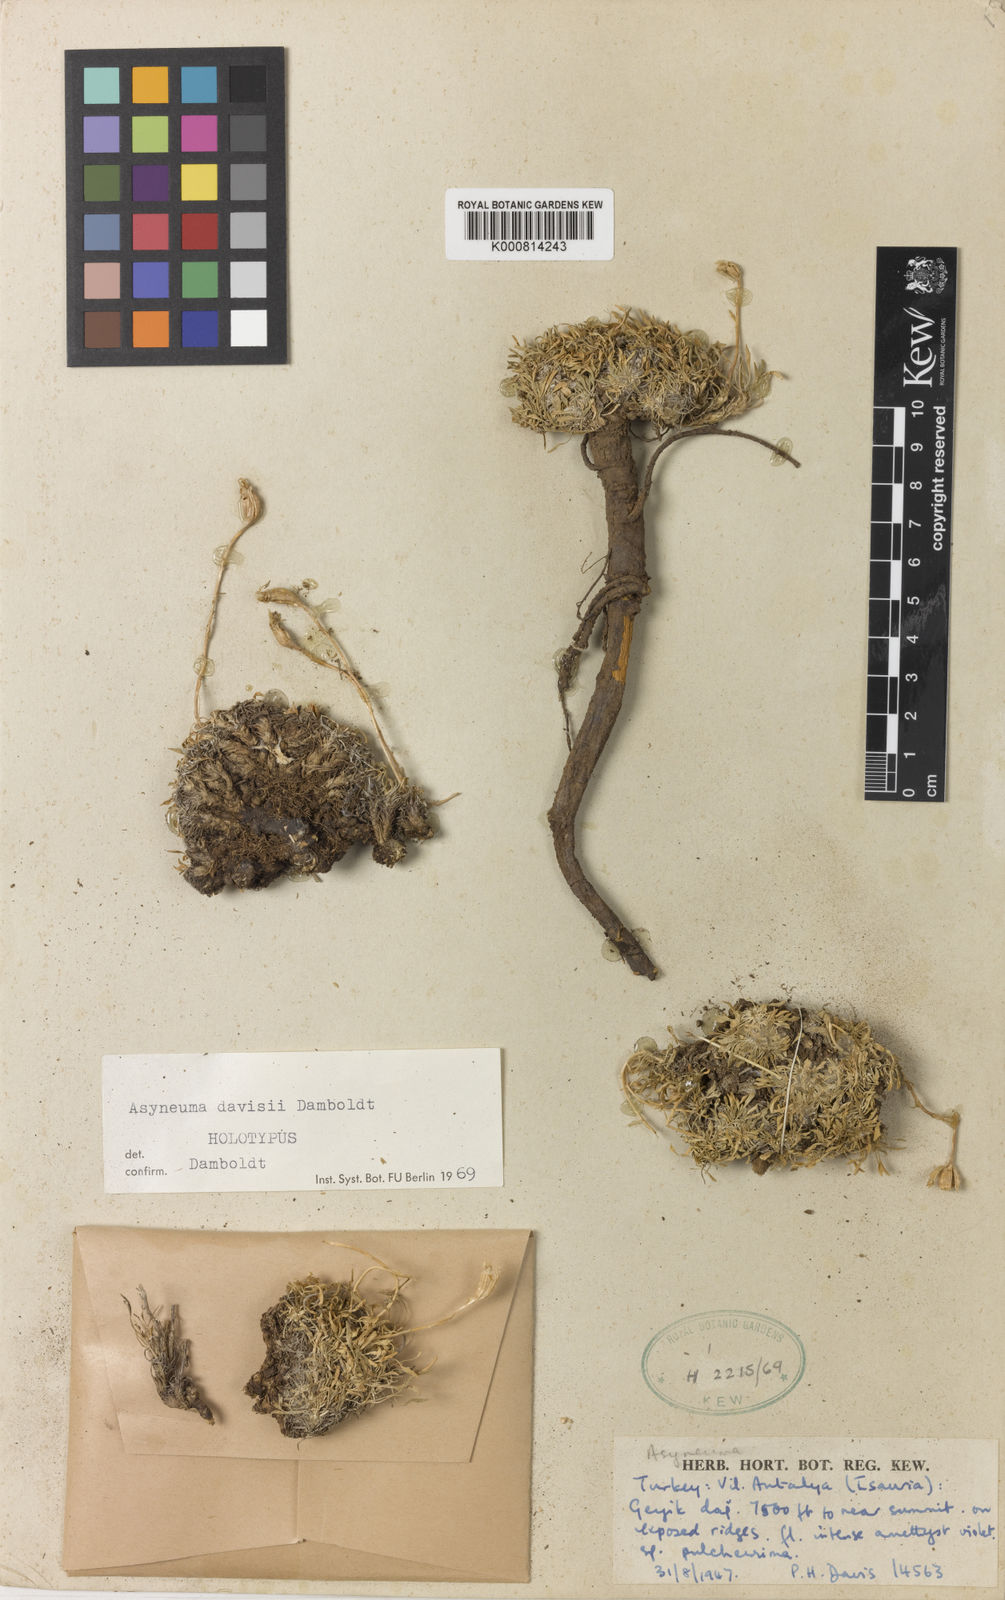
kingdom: Plantae
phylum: Tracheophyta
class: Magnoliopsida
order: Asterales
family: Campanulaceae
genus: Phyteuma
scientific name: Phyteuma
